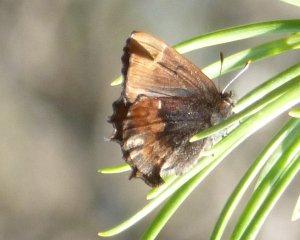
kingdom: Animalia
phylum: Arthropoda
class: Insecta
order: Lepidoptera
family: Lycaenidae
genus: Incisalia
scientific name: Incisalia henrici
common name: Henry's Elfin
